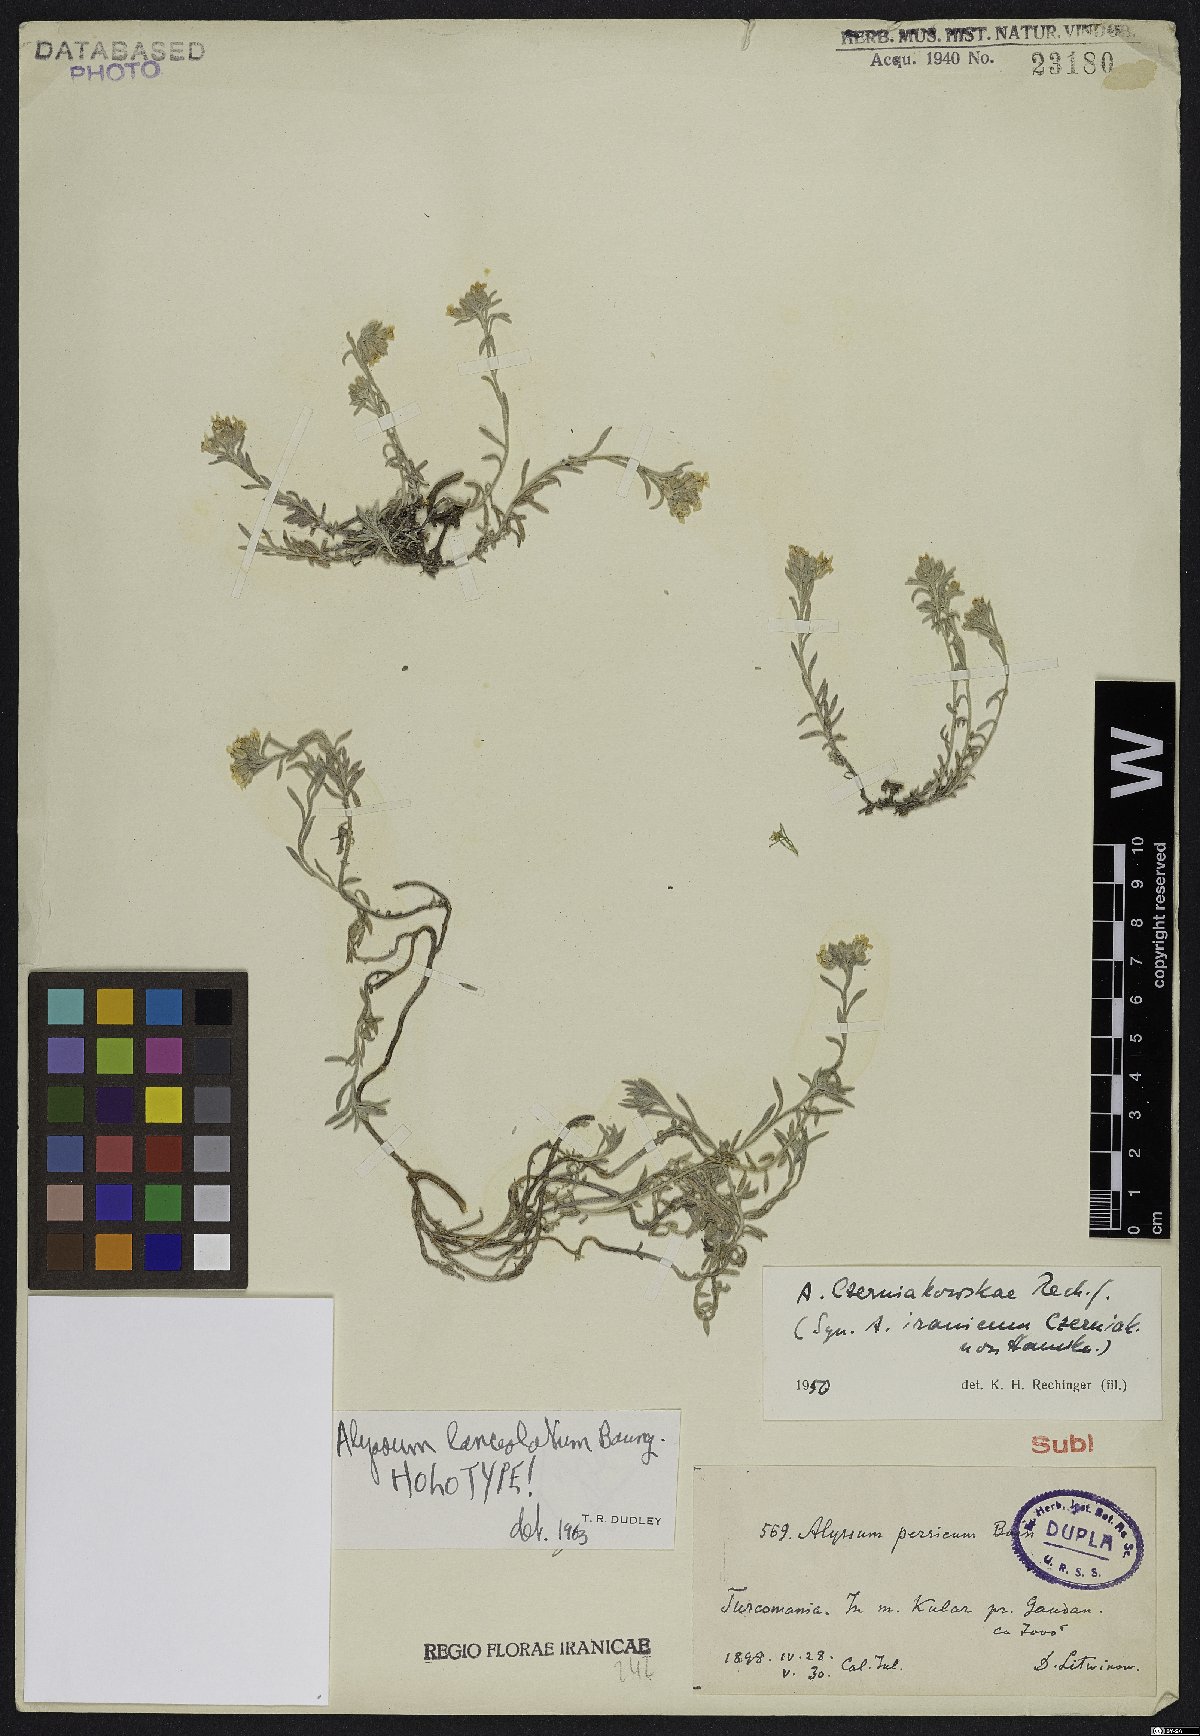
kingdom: Plantae
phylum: Tracheophyta
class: Magnoliopsida
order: Brassicales
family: Brassicaceae
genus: Alyssum
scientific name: Alyssum lanceolatum
